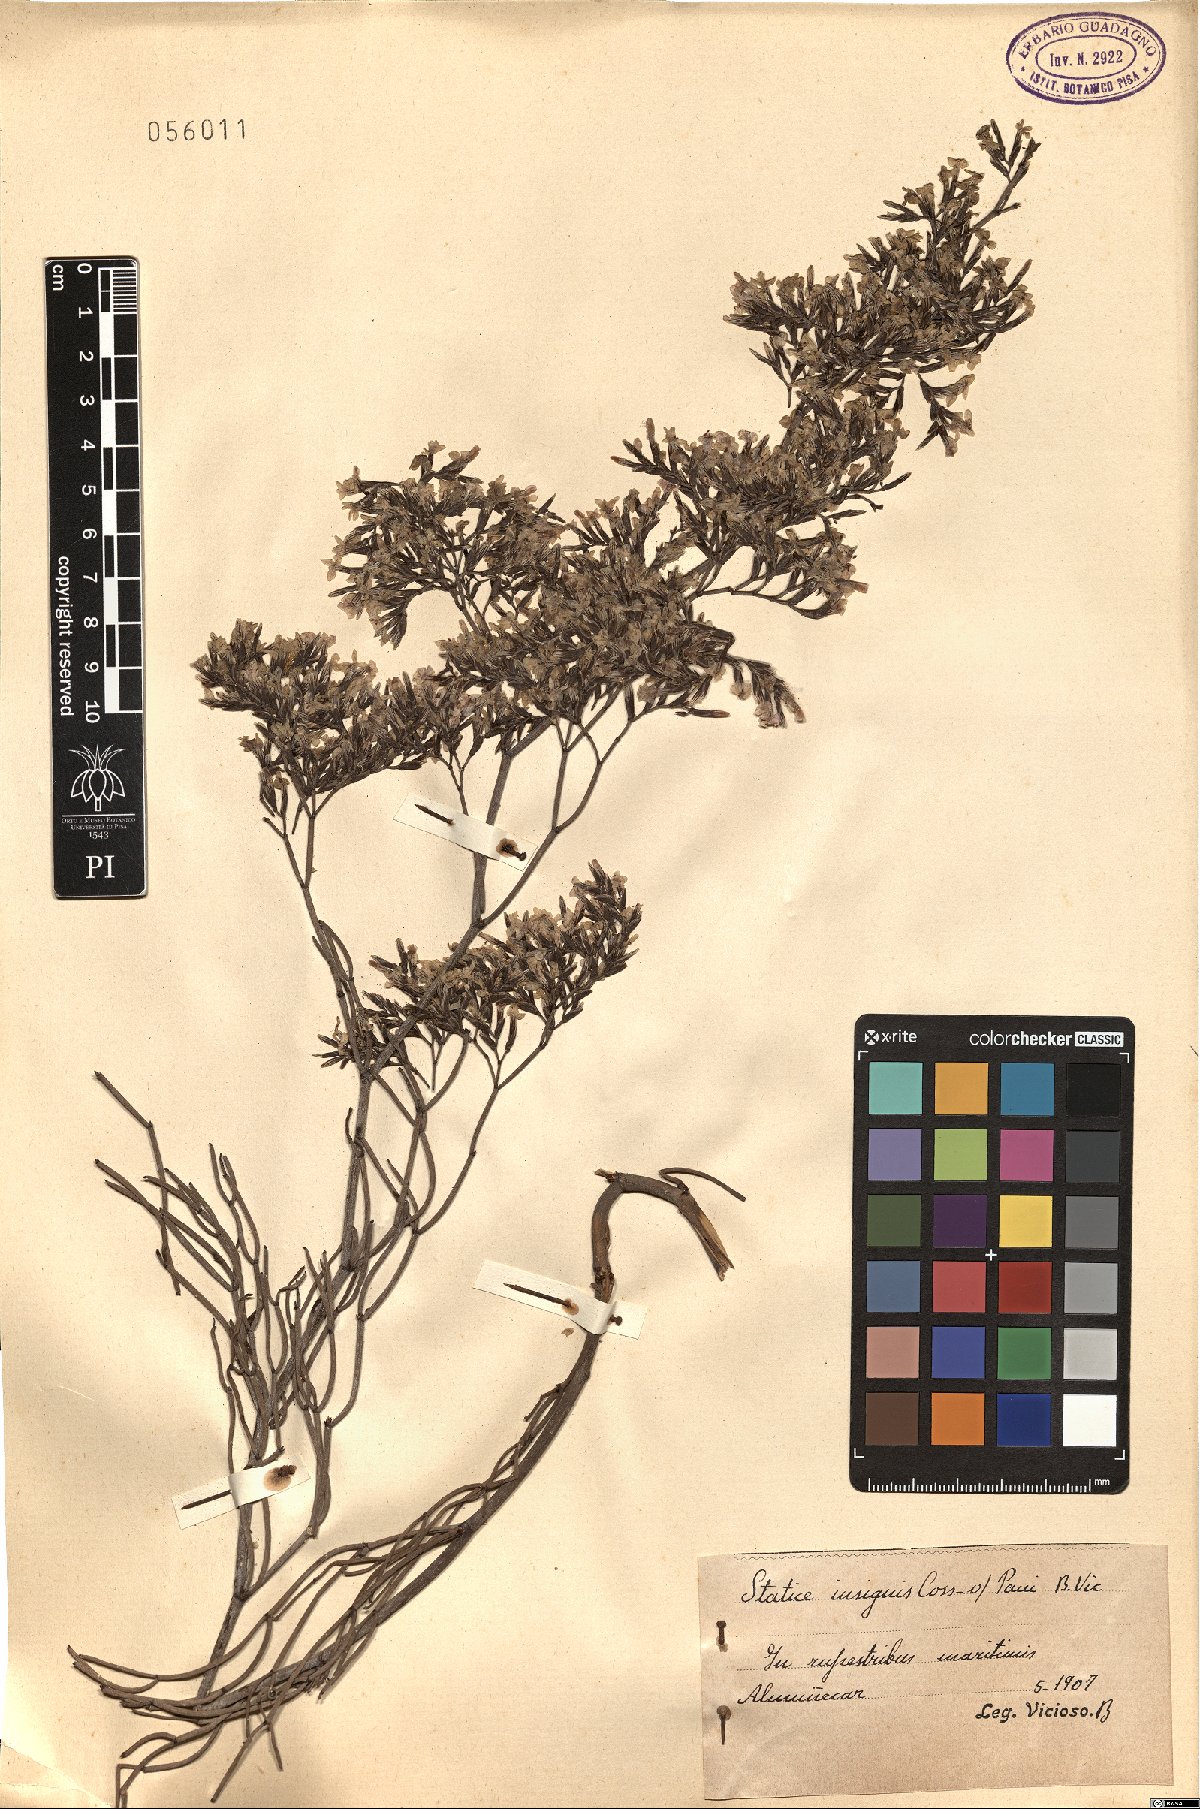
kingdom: Plantae
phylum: Tracheophyta
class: Magnoliopsida
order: Caryophyllales
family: Plumbaginaceae
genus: Limonium
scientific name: Limonium insigne
